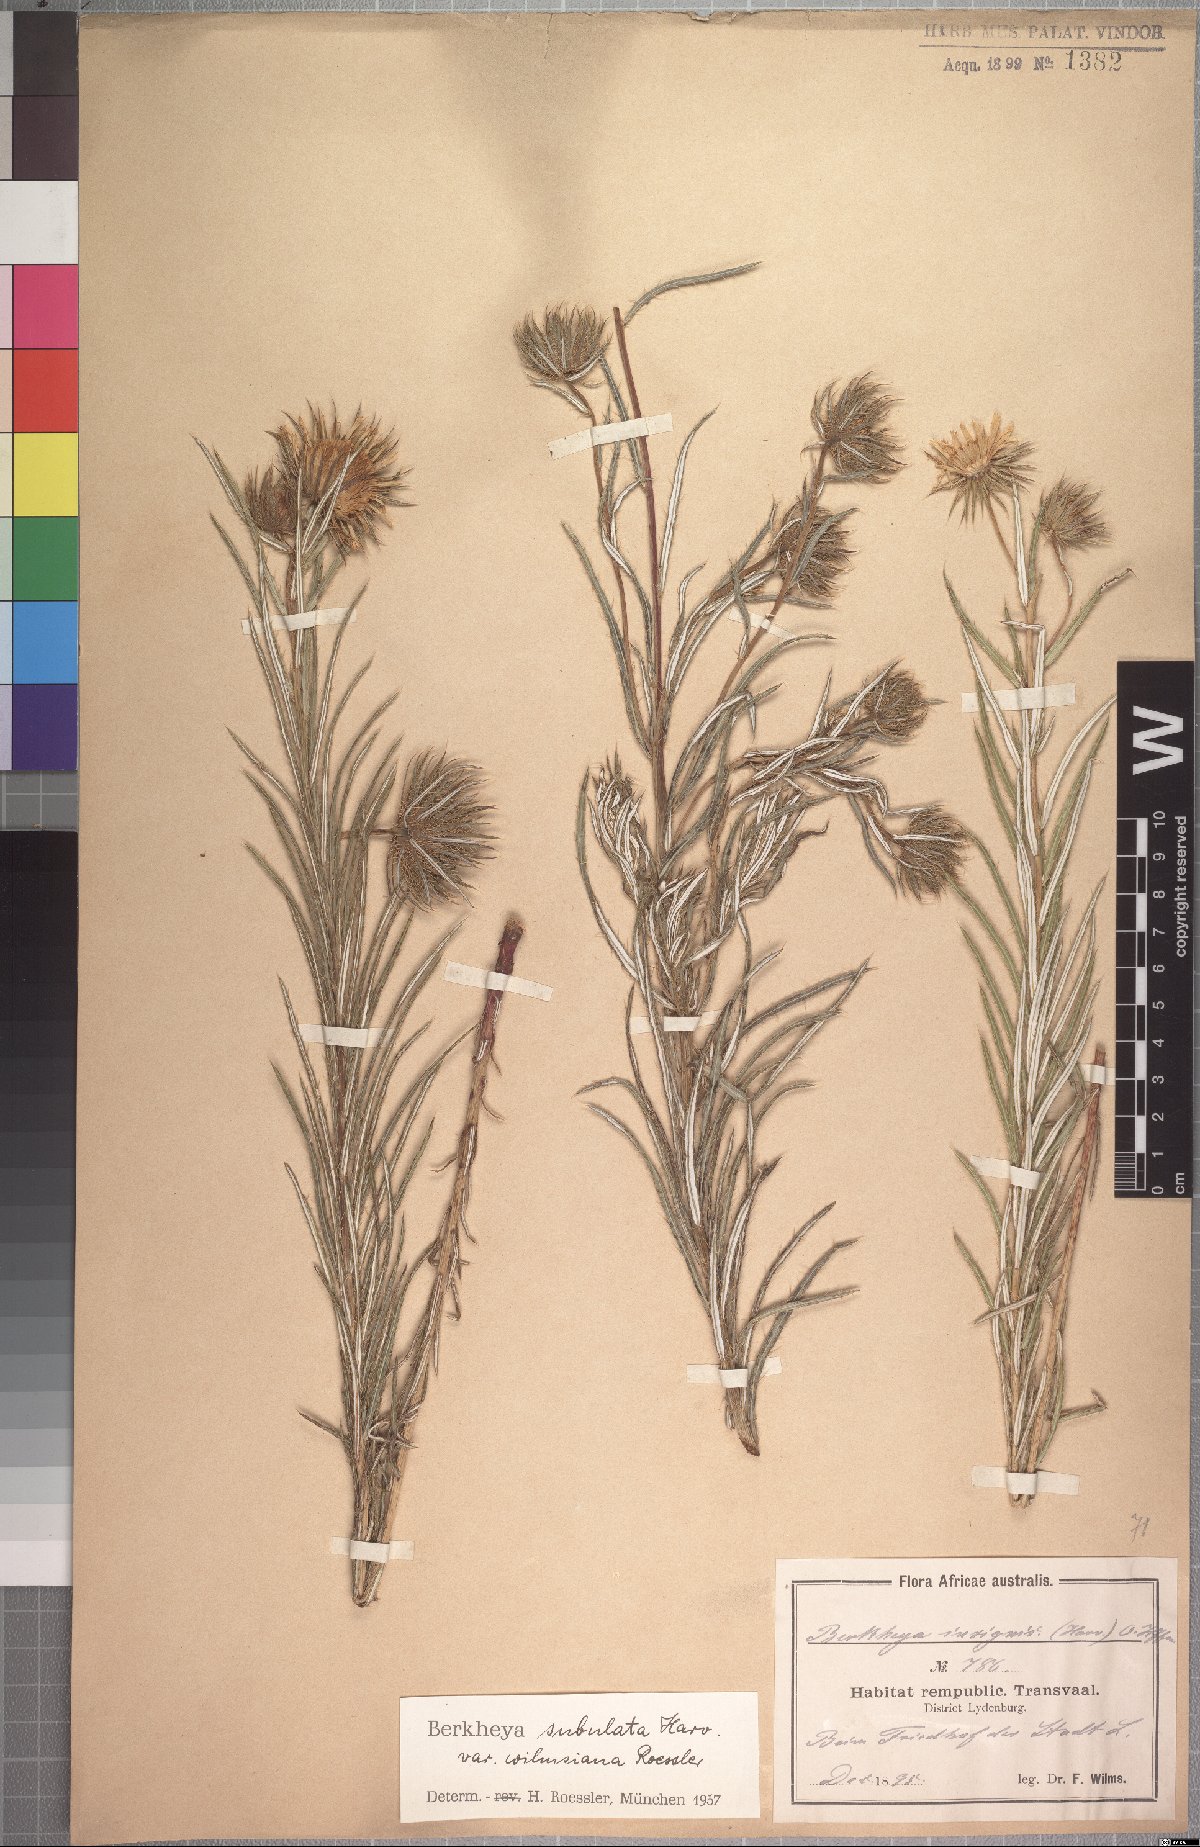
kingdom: Plantae
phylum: Tracheophyta
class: Magnoliopsida
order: Asterales
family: Asteraceae
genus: Berkheya
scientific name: Berkheya subulata
